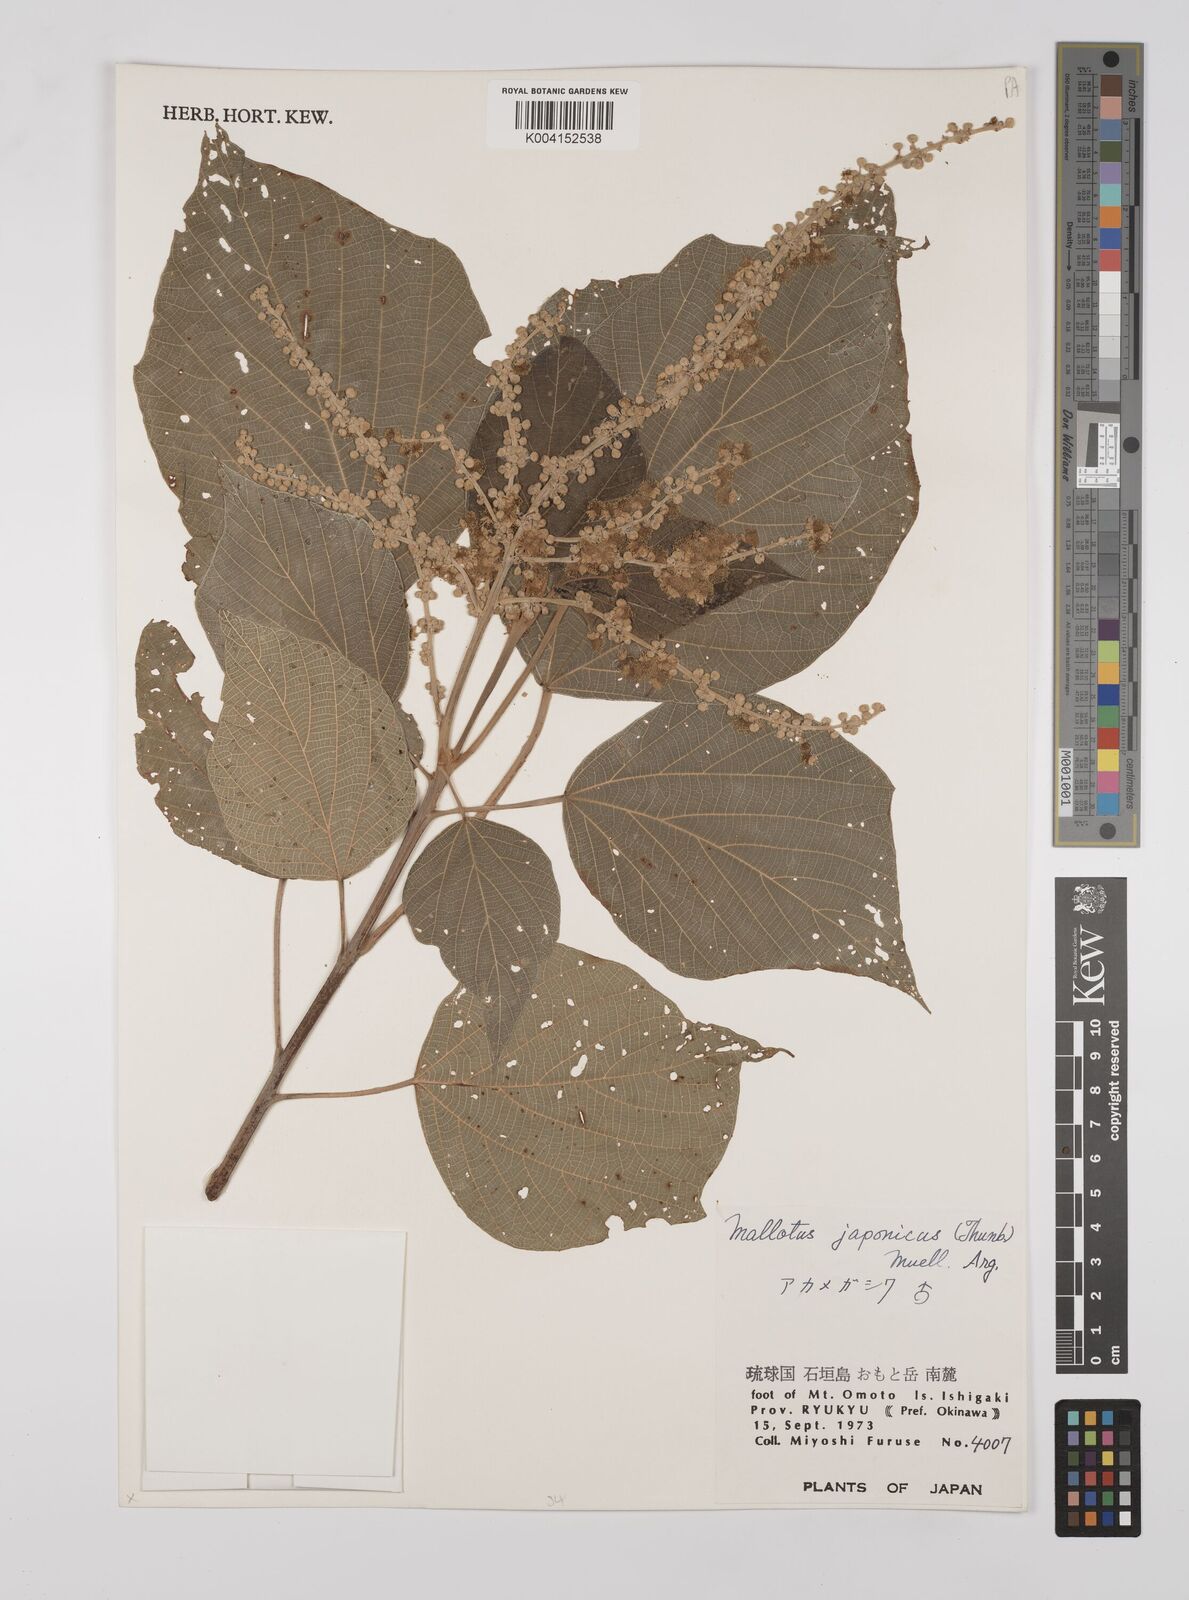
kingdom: Plantae
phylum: Tracheophyta
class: Magnoliopsida
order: Malpighiales
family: Euphorbiaceae
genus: Mallotus
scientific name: Mallotus japonicus
